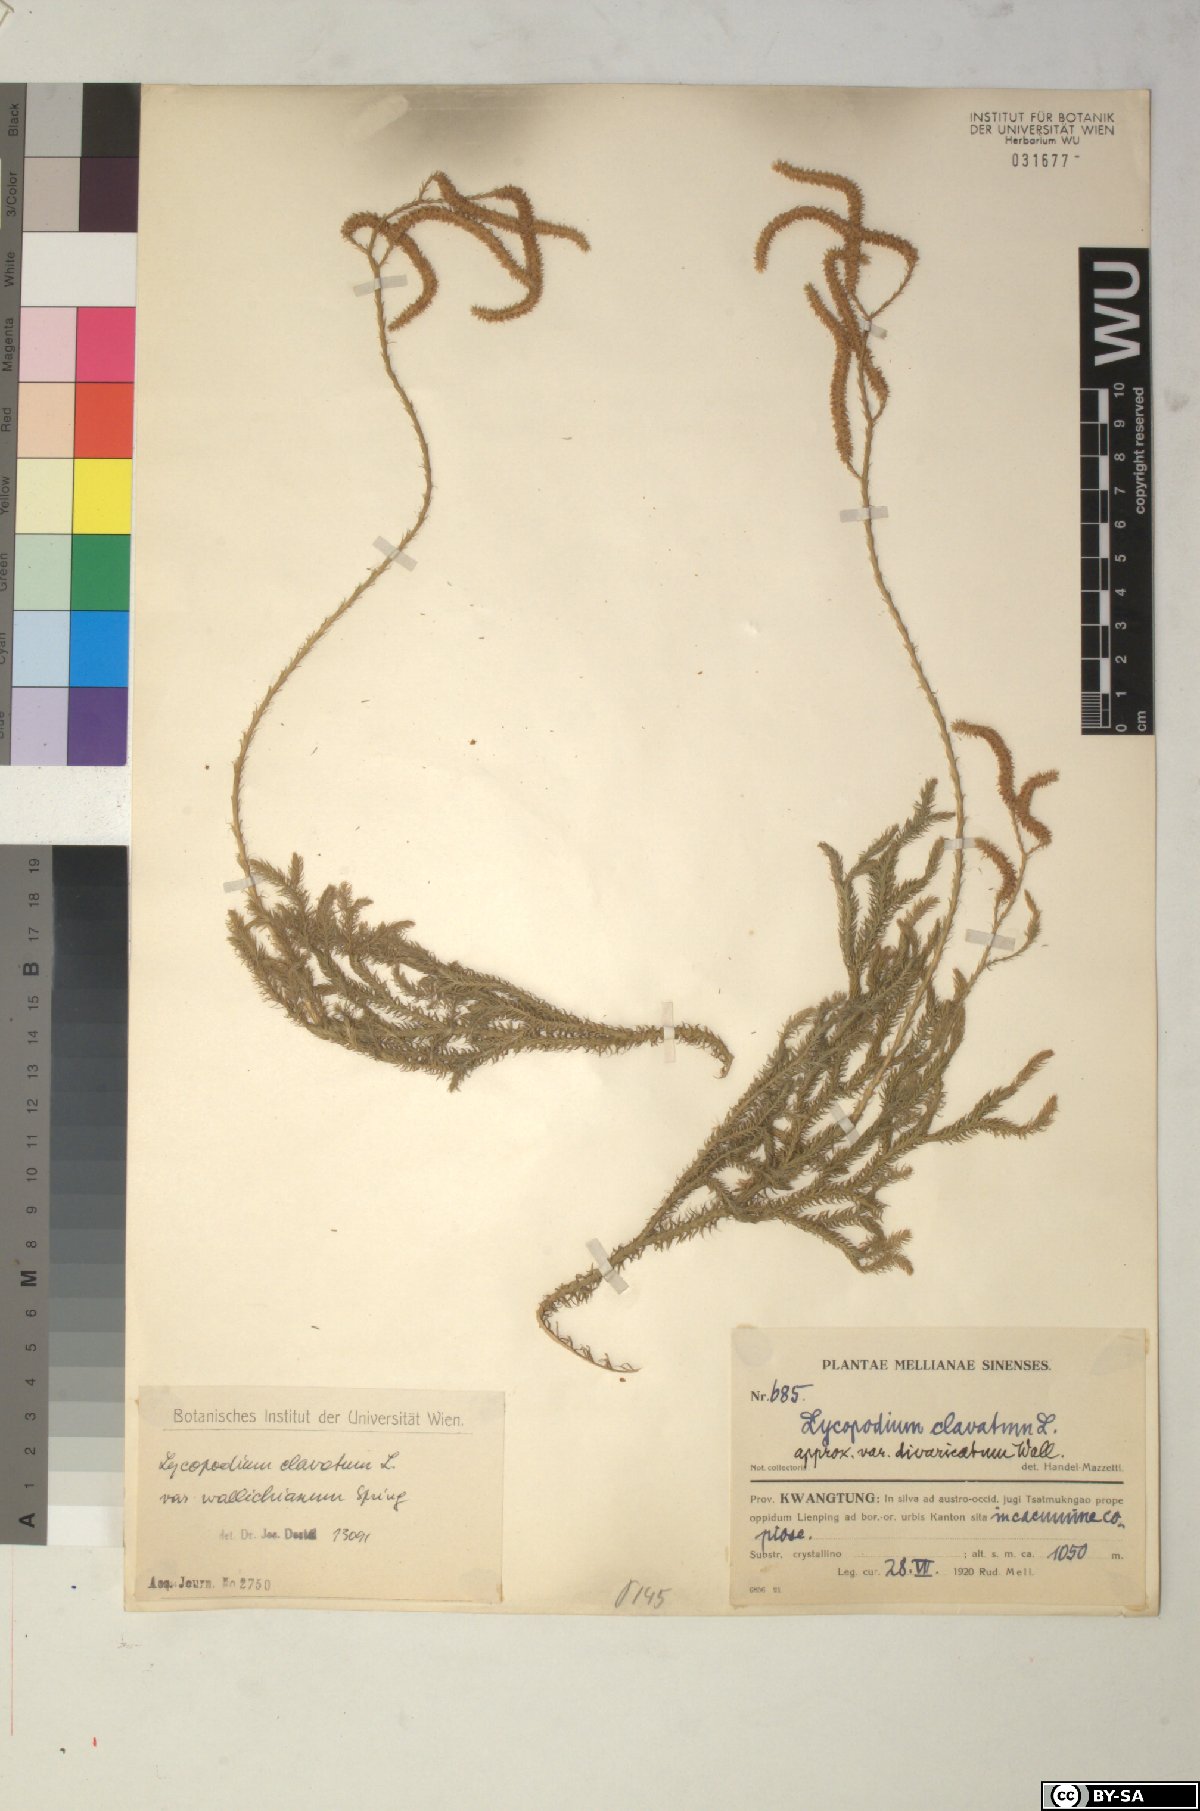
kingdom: Plantae
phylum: Tracheophyta
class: Lycopodiopsida
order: Lycopodiales
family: Lycopodiaceae
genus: Lycopodium
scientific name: Lycopodium japonicum
